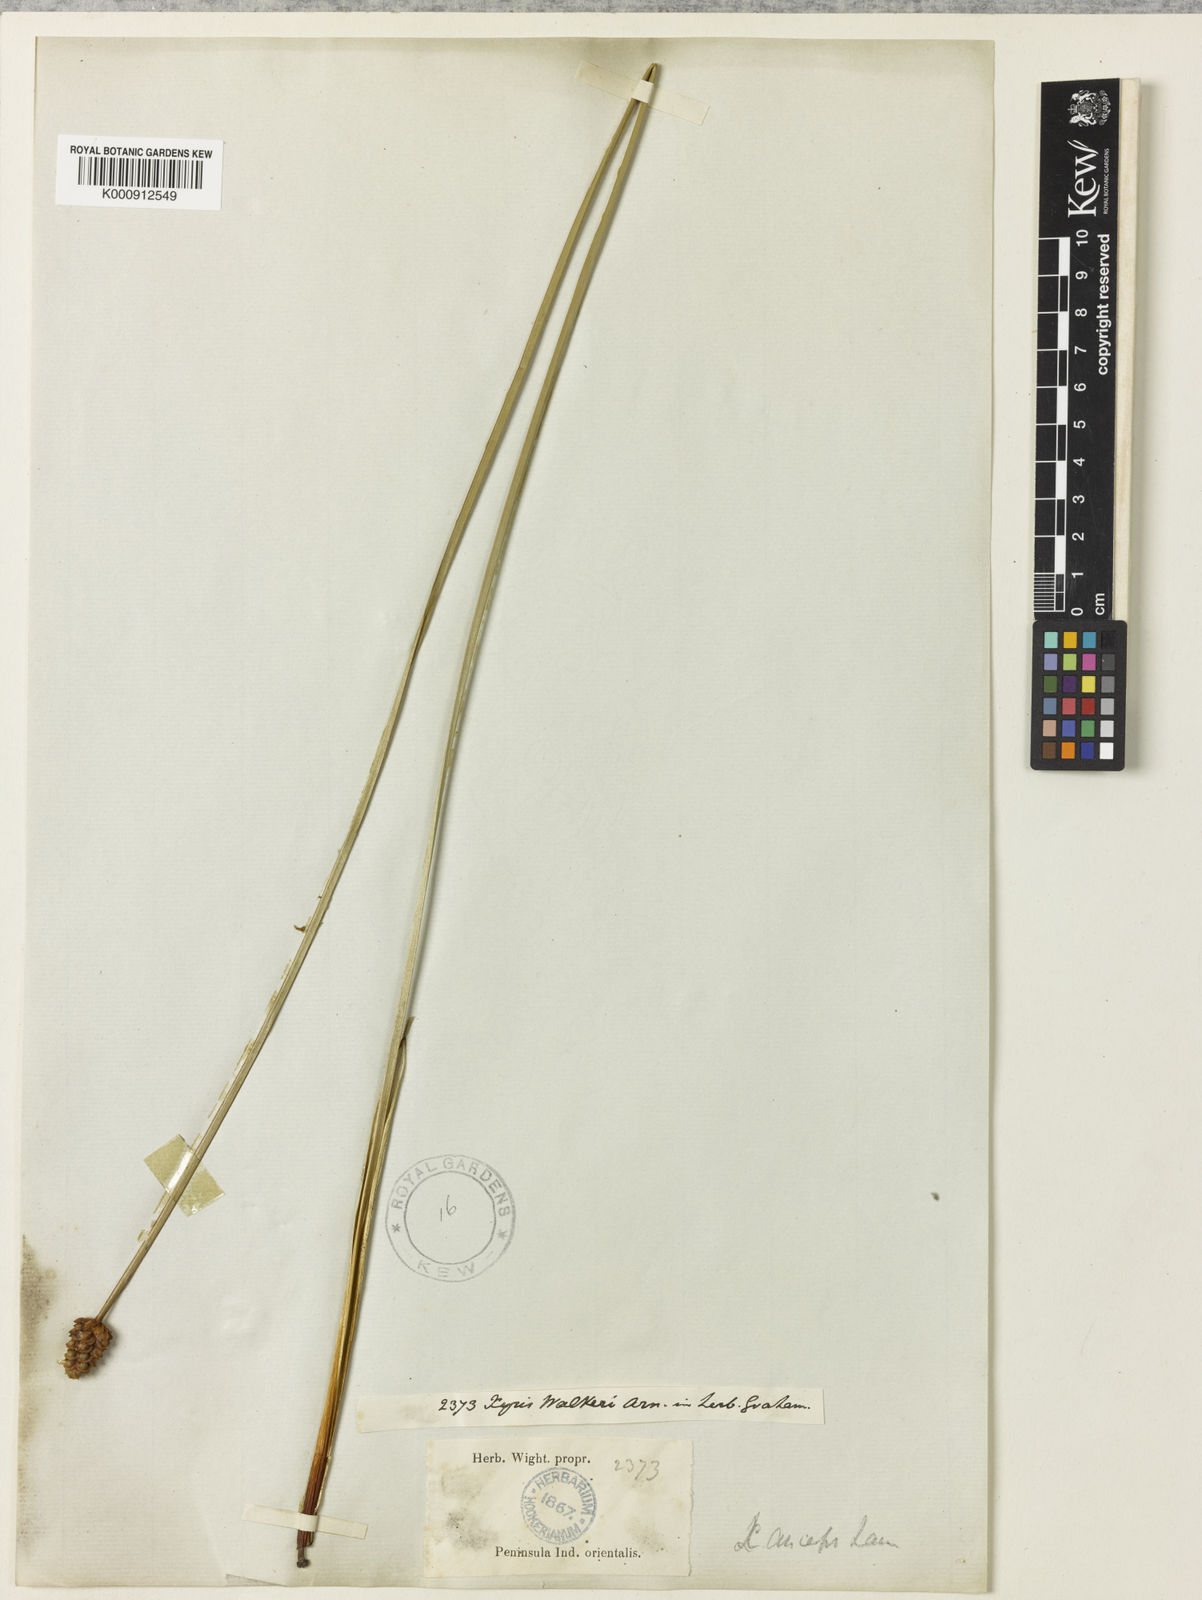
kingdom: Plantae
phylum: Tracheophyta
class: Liliopsida
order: Poales
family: Xyridaceae
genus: Xyris
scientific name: Xyris complanata
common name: Hawai'i yelloweyed grass
